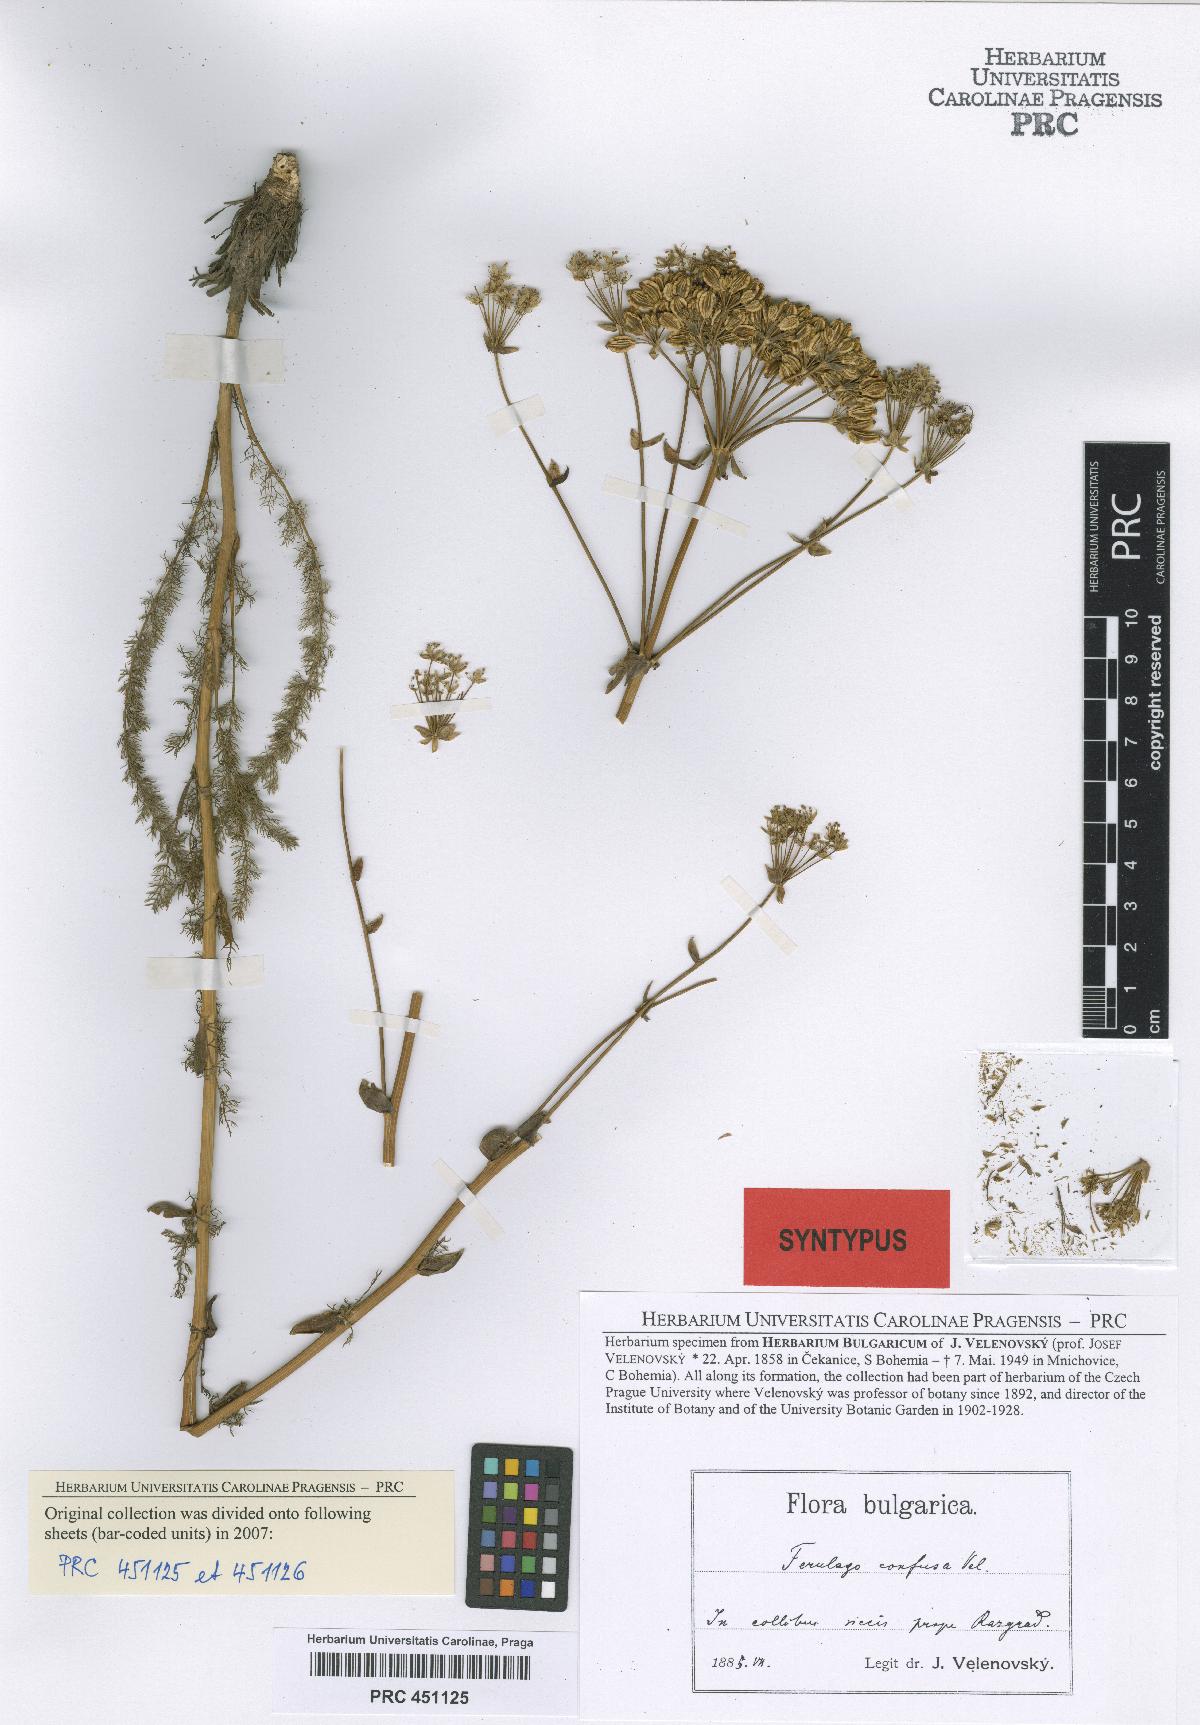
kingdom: Plantae
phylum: Tracheophyta
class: Magnoliopsida
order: Apiales
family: Apiaceae
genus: Ferulago
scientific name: Ferulago sylvatica
